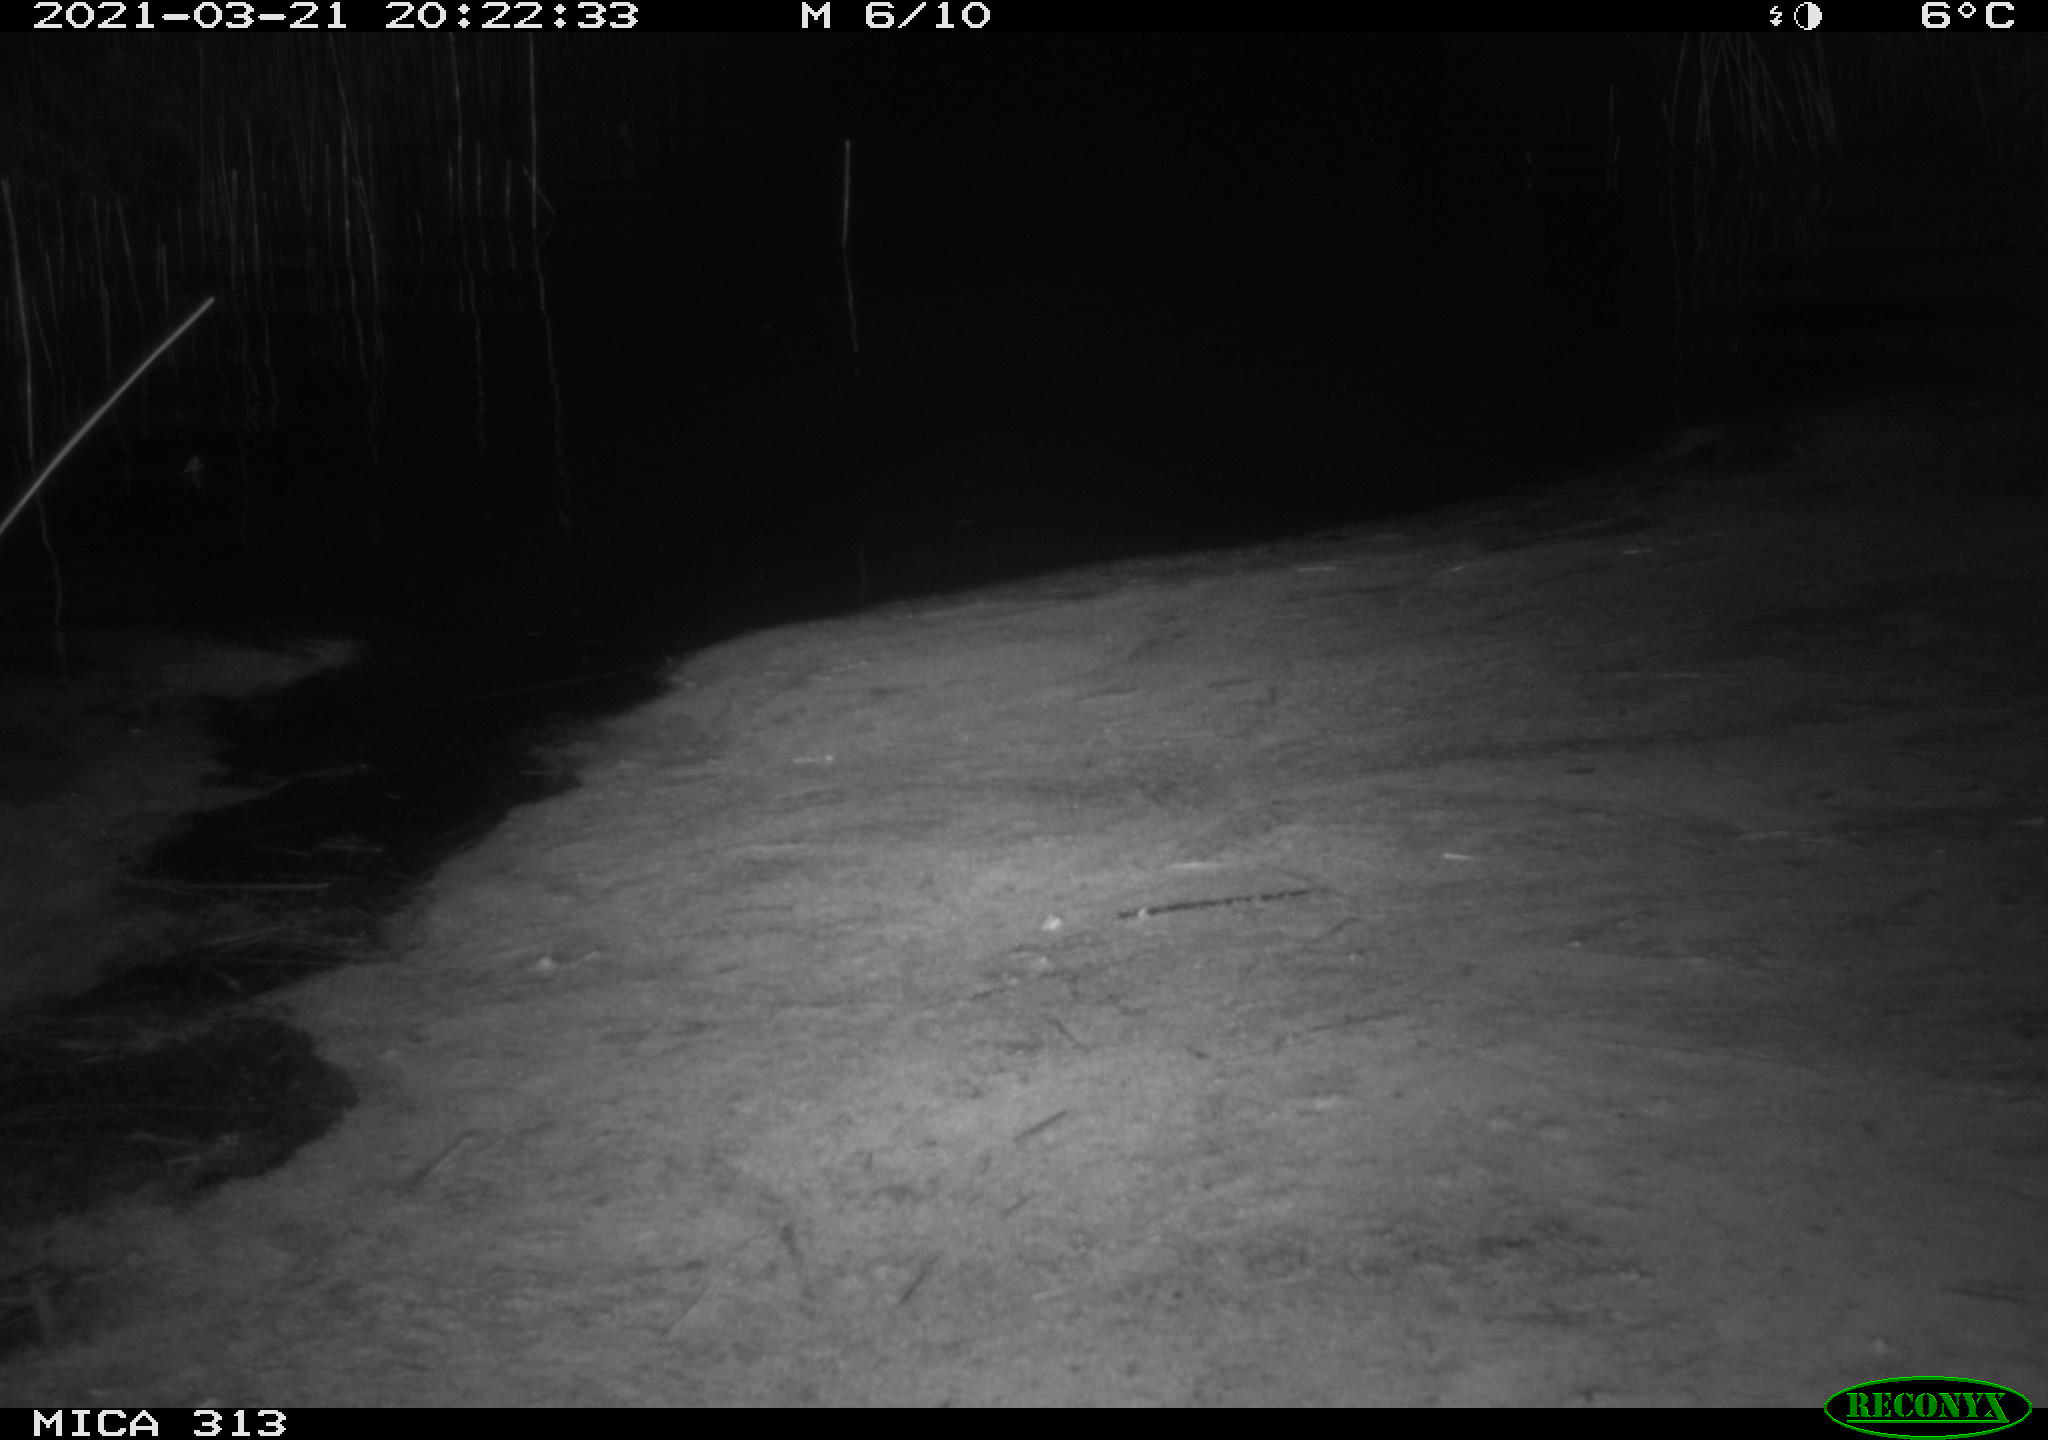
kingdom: Animalia
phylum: Chordata
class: Aves
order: Anseriformes
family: Anatidae
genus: Anas
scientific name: Anas platyrhynchos
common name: Mallard
